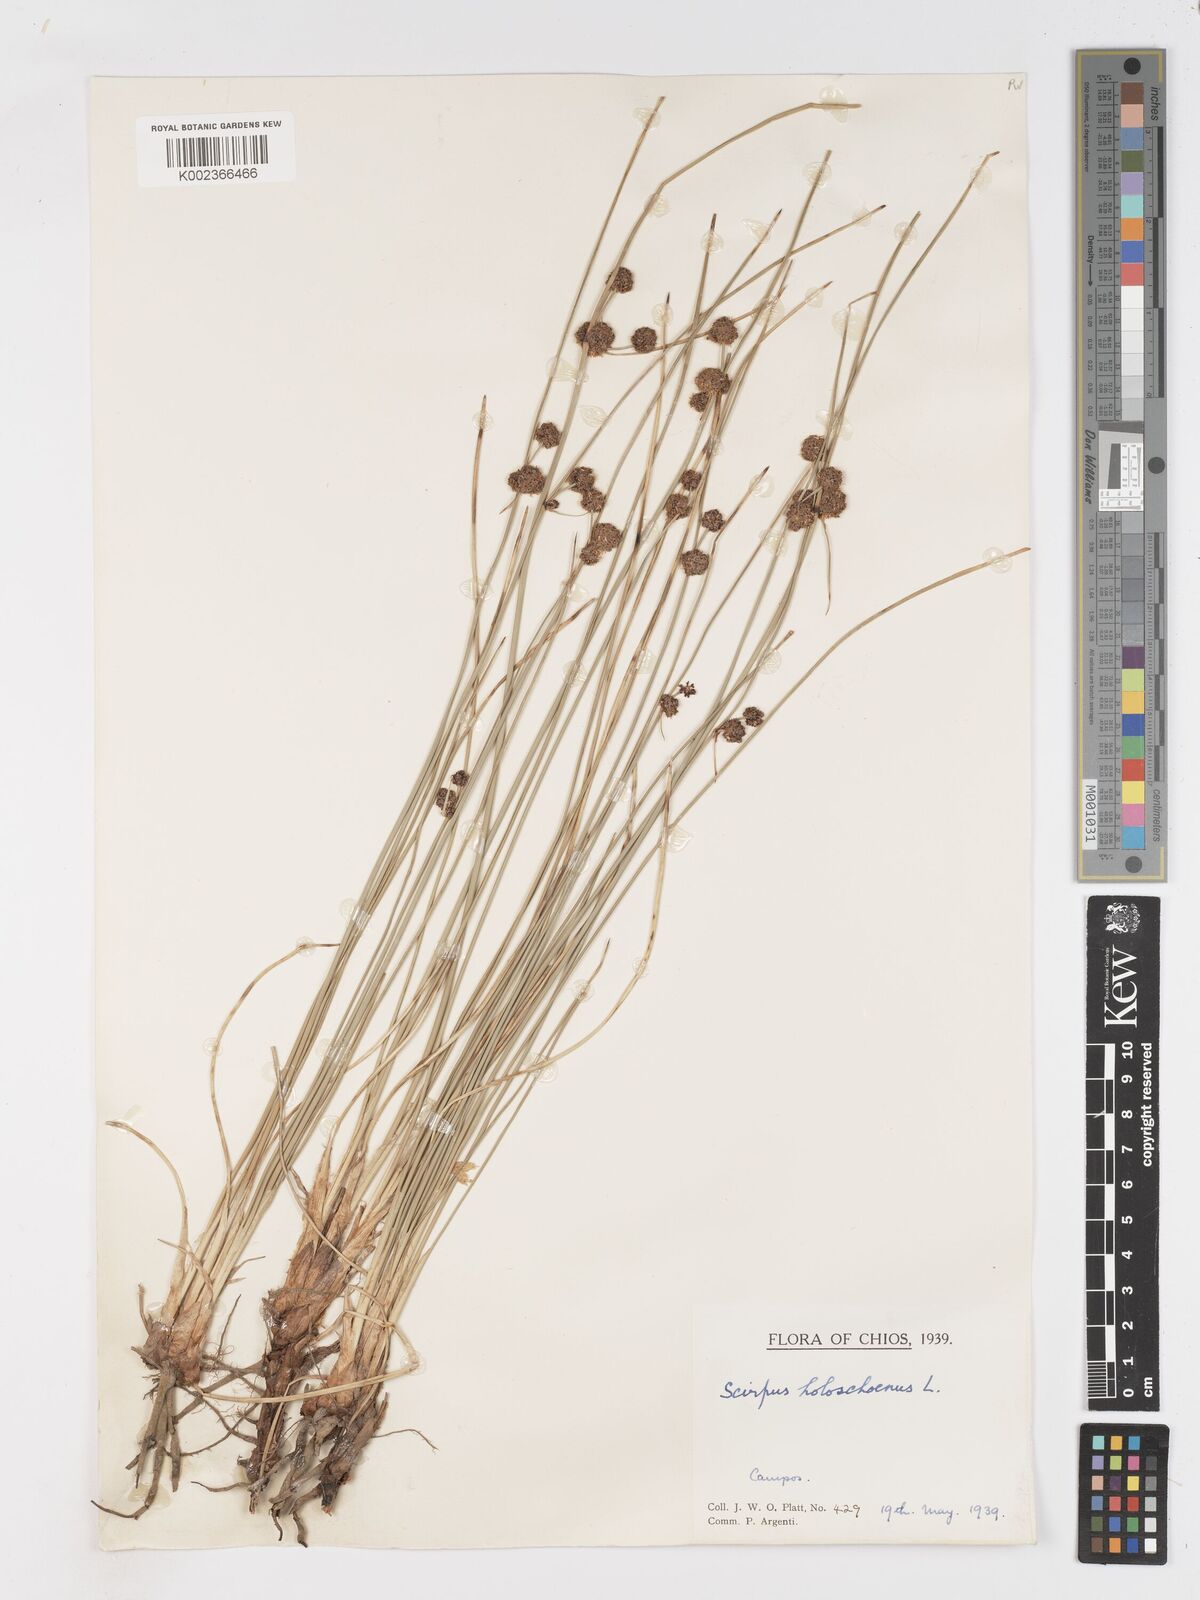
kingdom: Plantae
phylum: Tracheophyta
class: Liliopsida
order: Poales
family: Cyperaceae
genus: Scirpoides
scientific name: Scirpoides holoschoenus
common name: Round-headed club-rush
